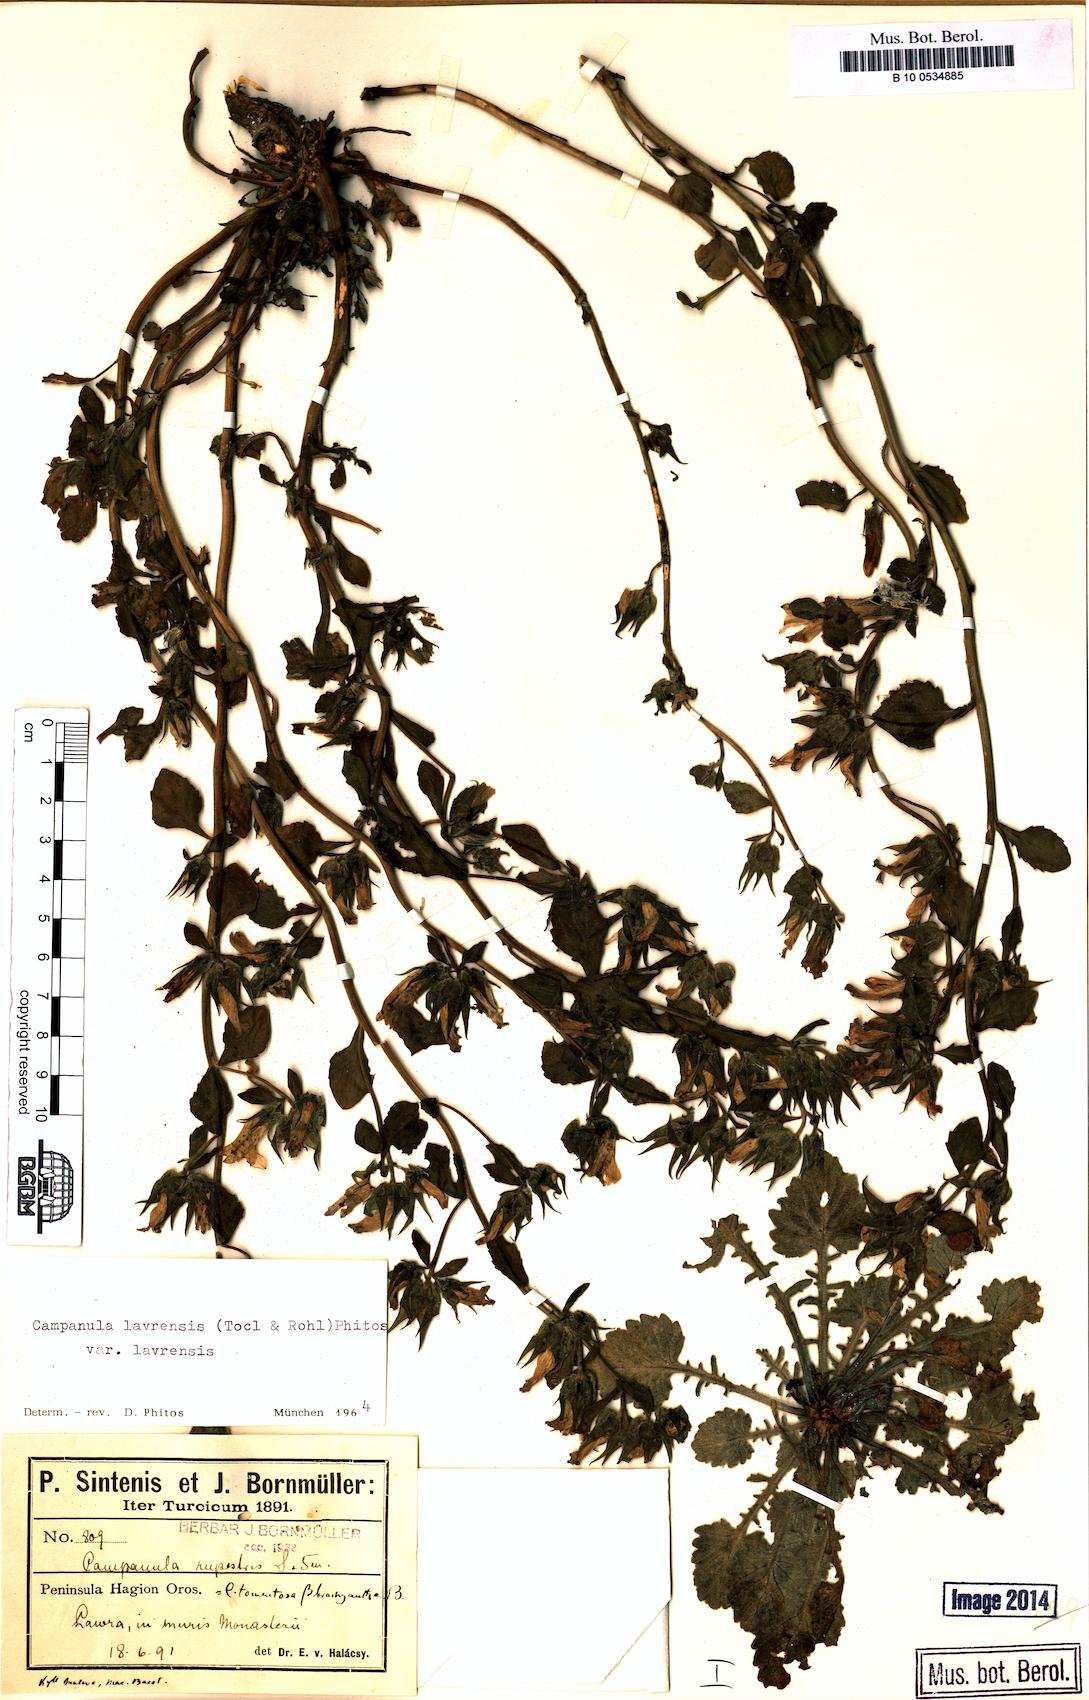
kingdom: Plantae
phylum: Tracheophyta
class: Magnoliopsida
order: Asterales
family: Campanulaceae
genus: Campanula
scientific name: Campanula lavrensis
